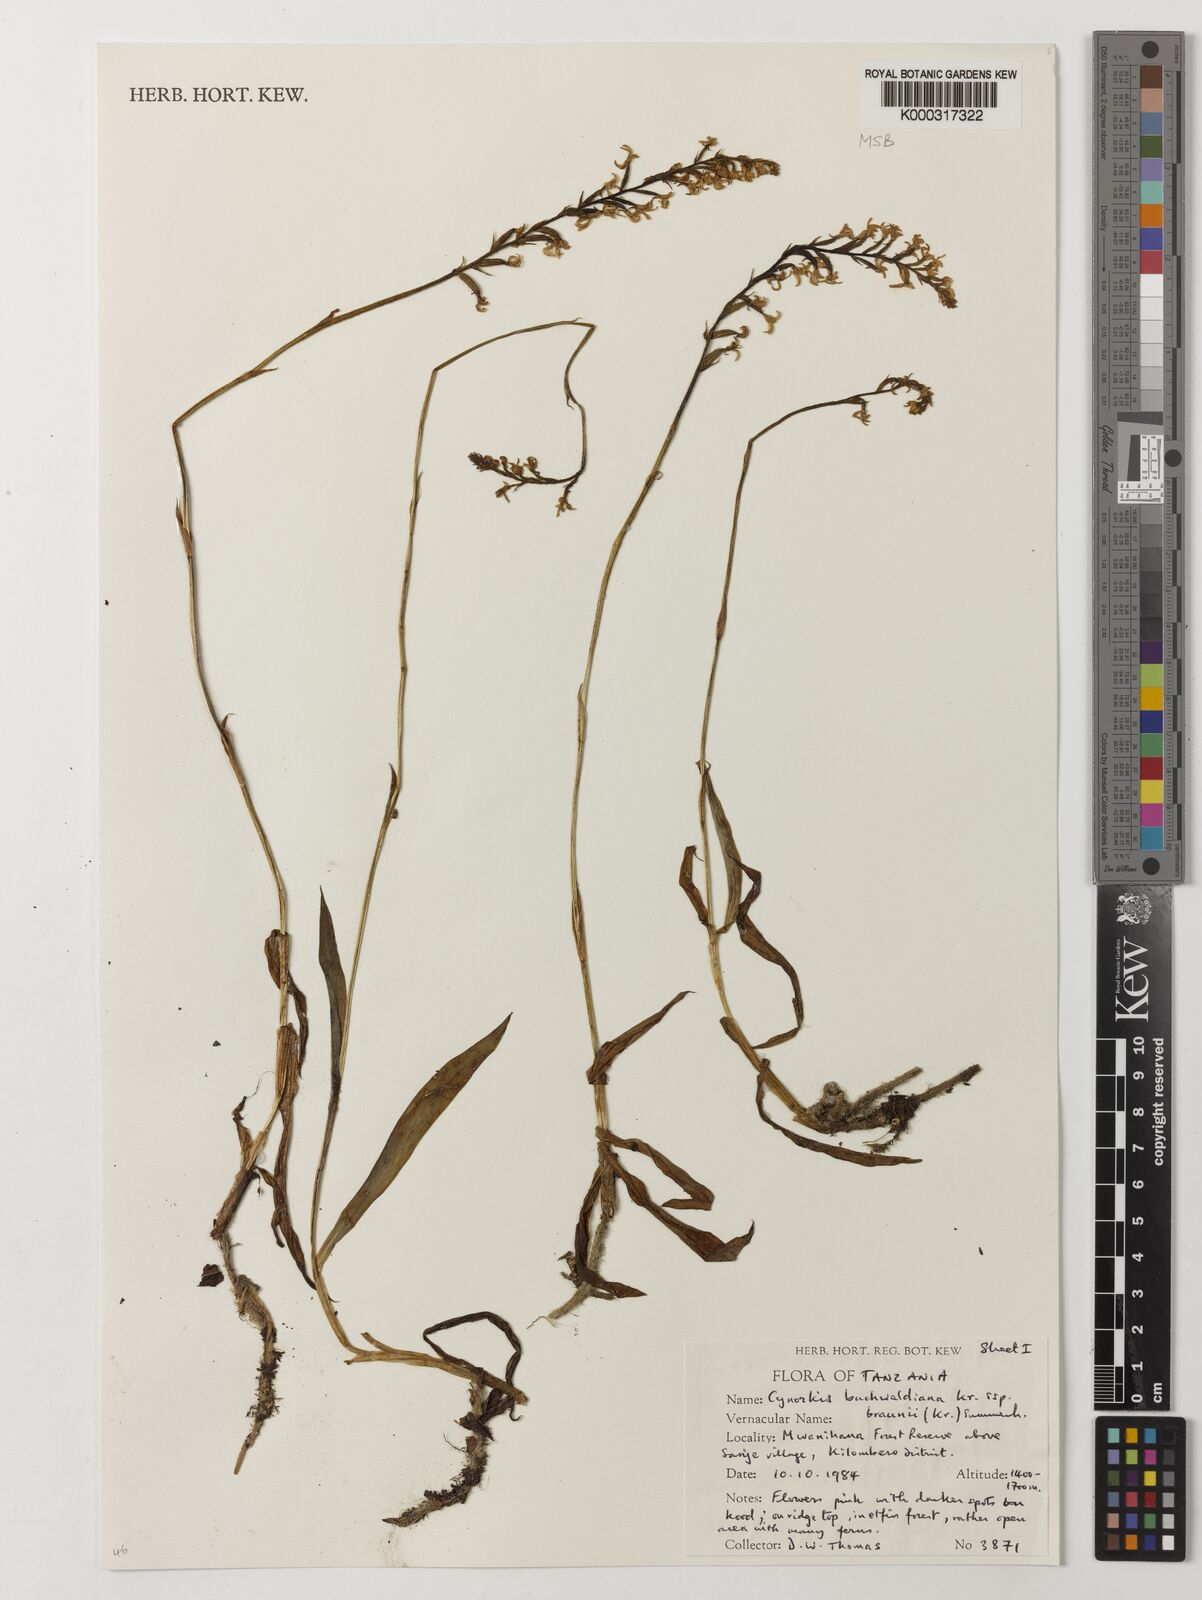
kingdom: Plantae
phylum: Tracheophyta
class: Liliopsida
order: Asparagales
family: Orchidaceae
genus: Cynorkis
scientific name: Cynorkis buchwaldiana
